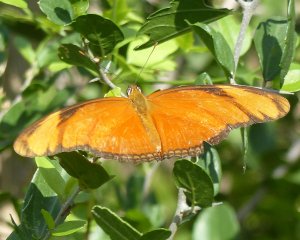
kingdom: Animalia
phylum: Arthropoda
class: Insecta
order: Lepidoptera
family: Nymphalidae
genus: Dryas
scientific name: Dryas iulia
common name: Julia
